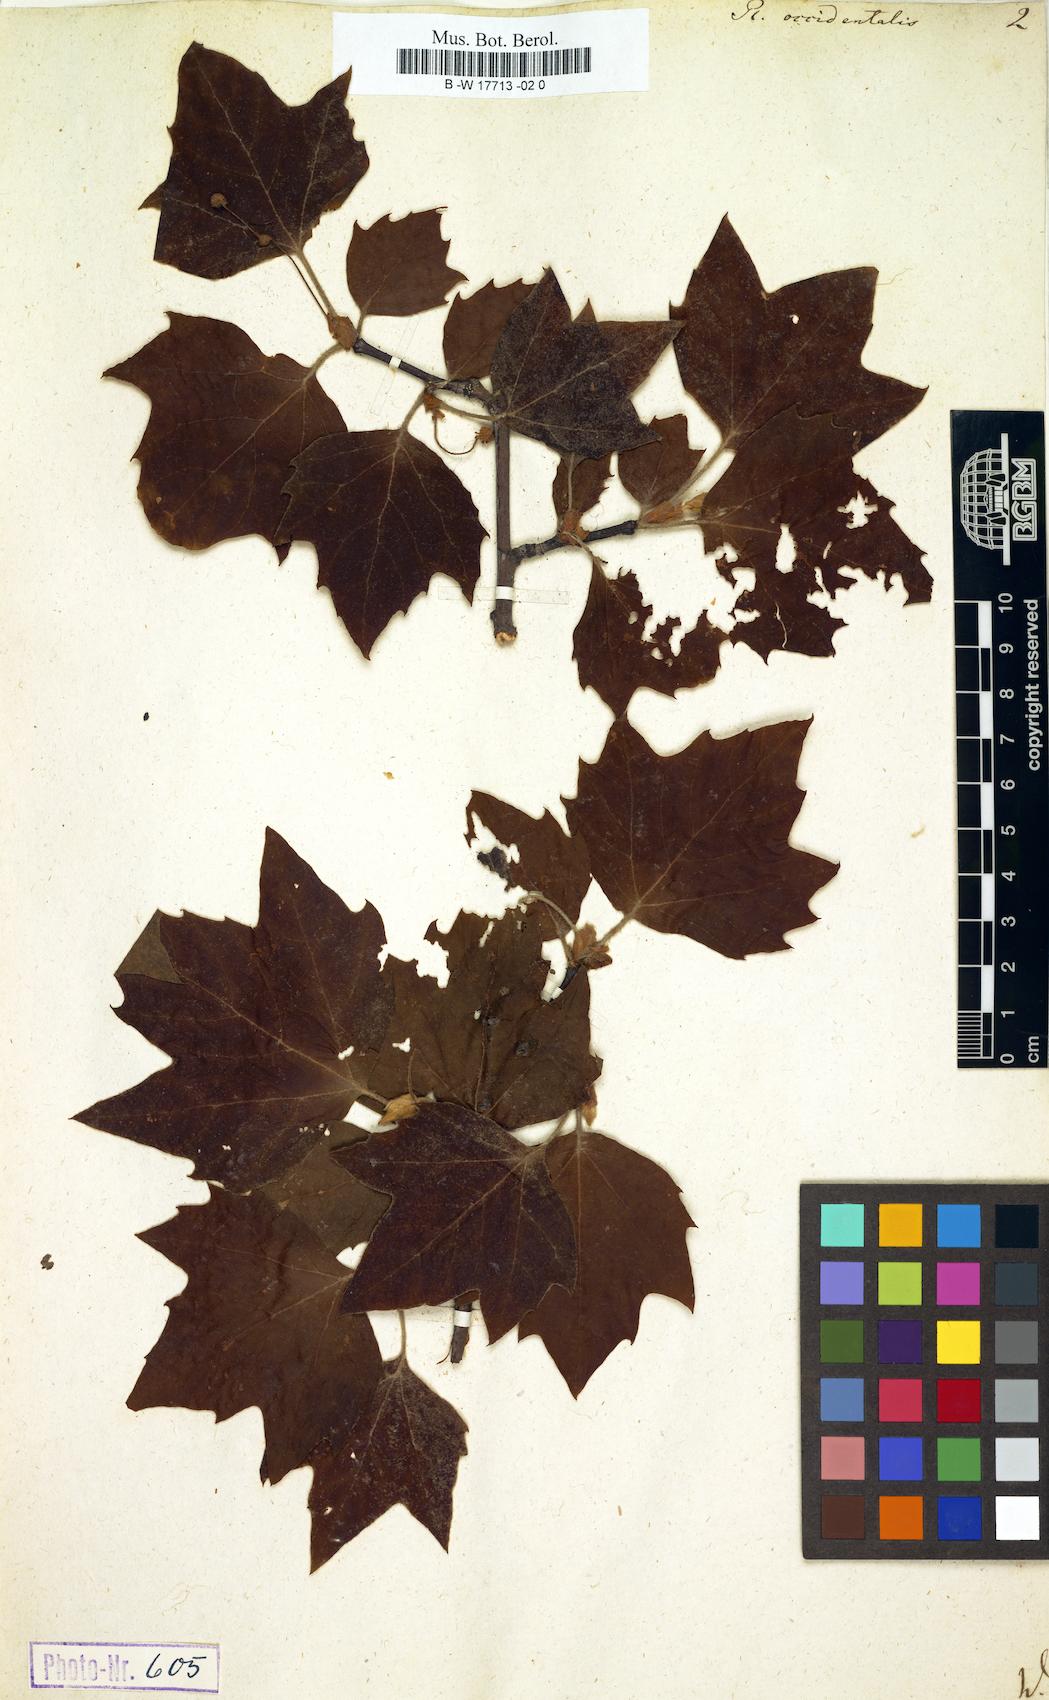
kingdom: Plantae
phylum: Tracheophyta
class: Magnoliopsida
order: Proteales
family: Platanaceae
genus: Platanus
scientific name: Platanus occidentalis
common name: American sycamore
